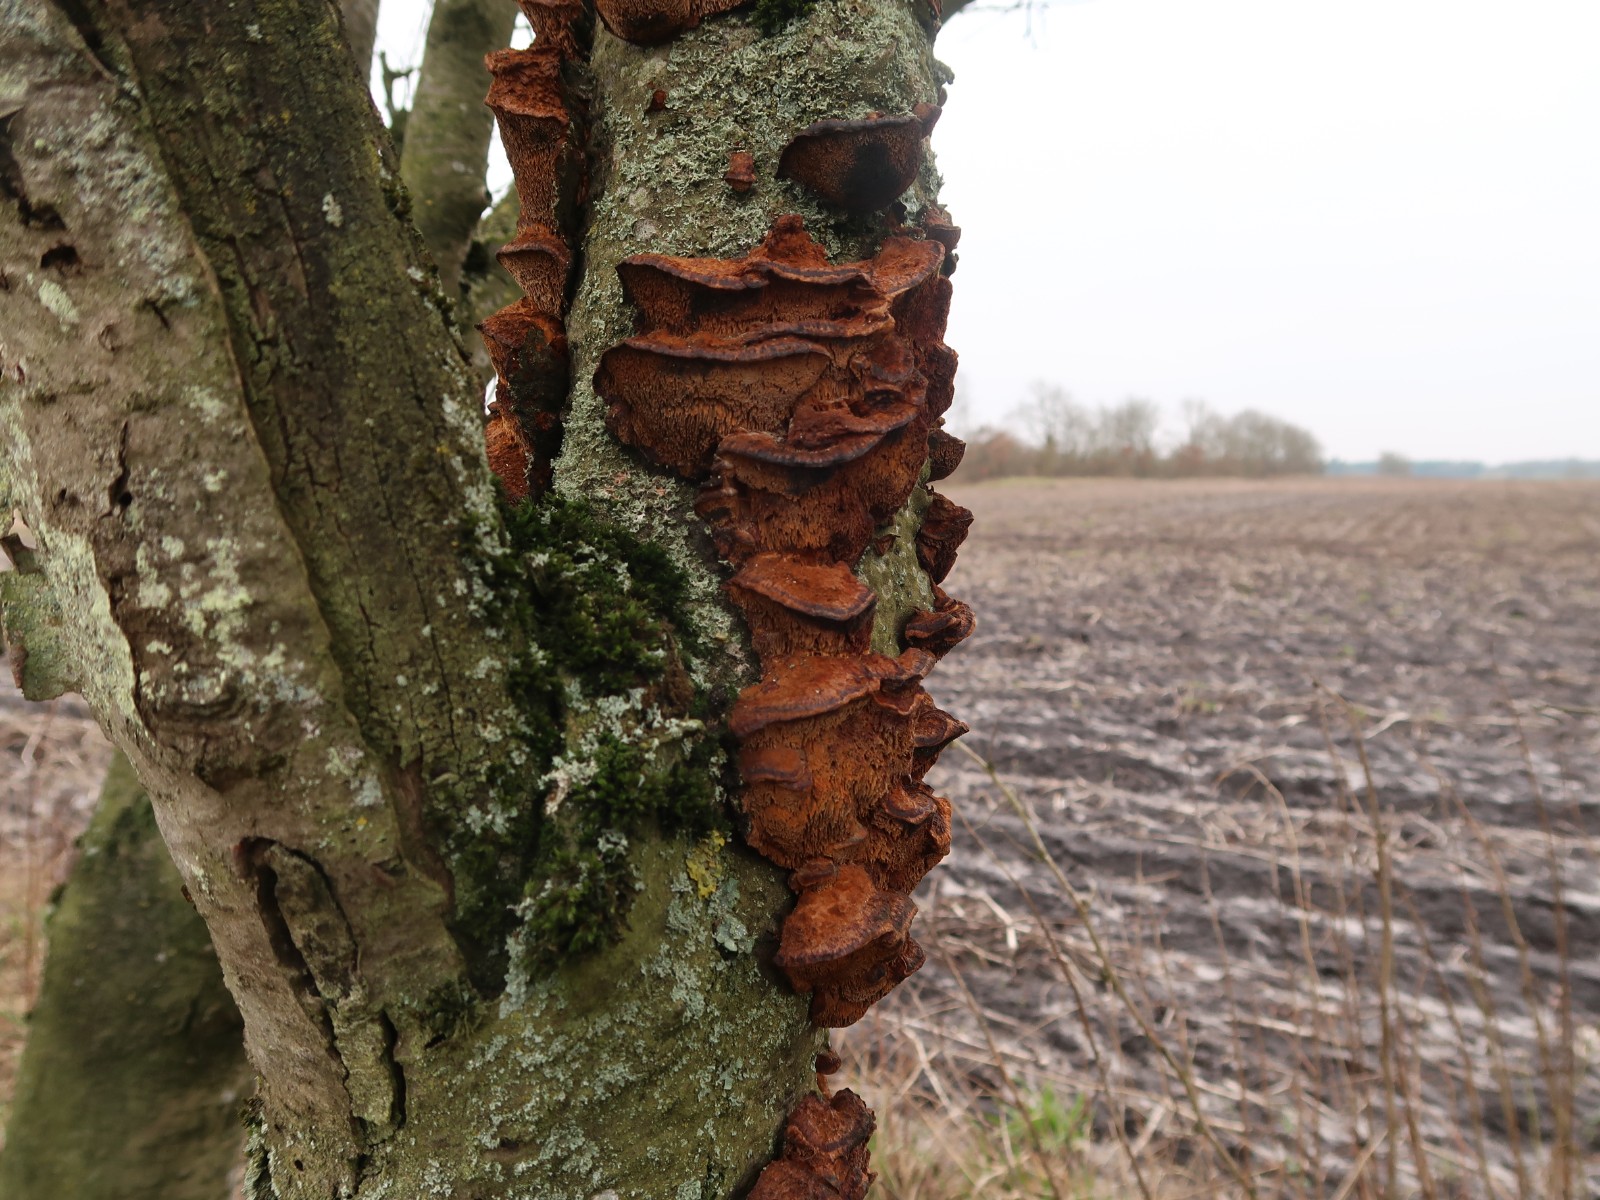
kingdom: Fungi
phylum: Basidiomycota
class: Agaricomycetes
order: Hymenochaetales
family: Hymenochaetaceae
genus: Xanthoporia
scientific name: Xanthoporia radiata
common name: elle-spejlporesvamp
